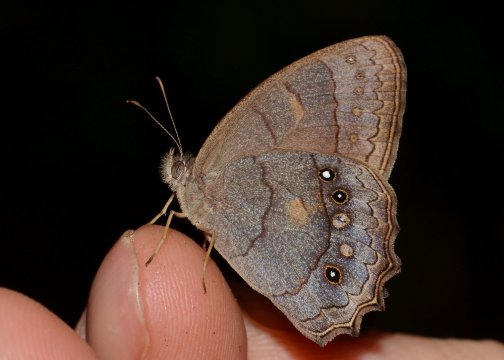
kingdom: Animalia
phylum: Arthropoda
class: Insecta
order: Lepidoptera
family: Nymphalidae
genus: Taygetis
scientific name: Taygetis kerea
